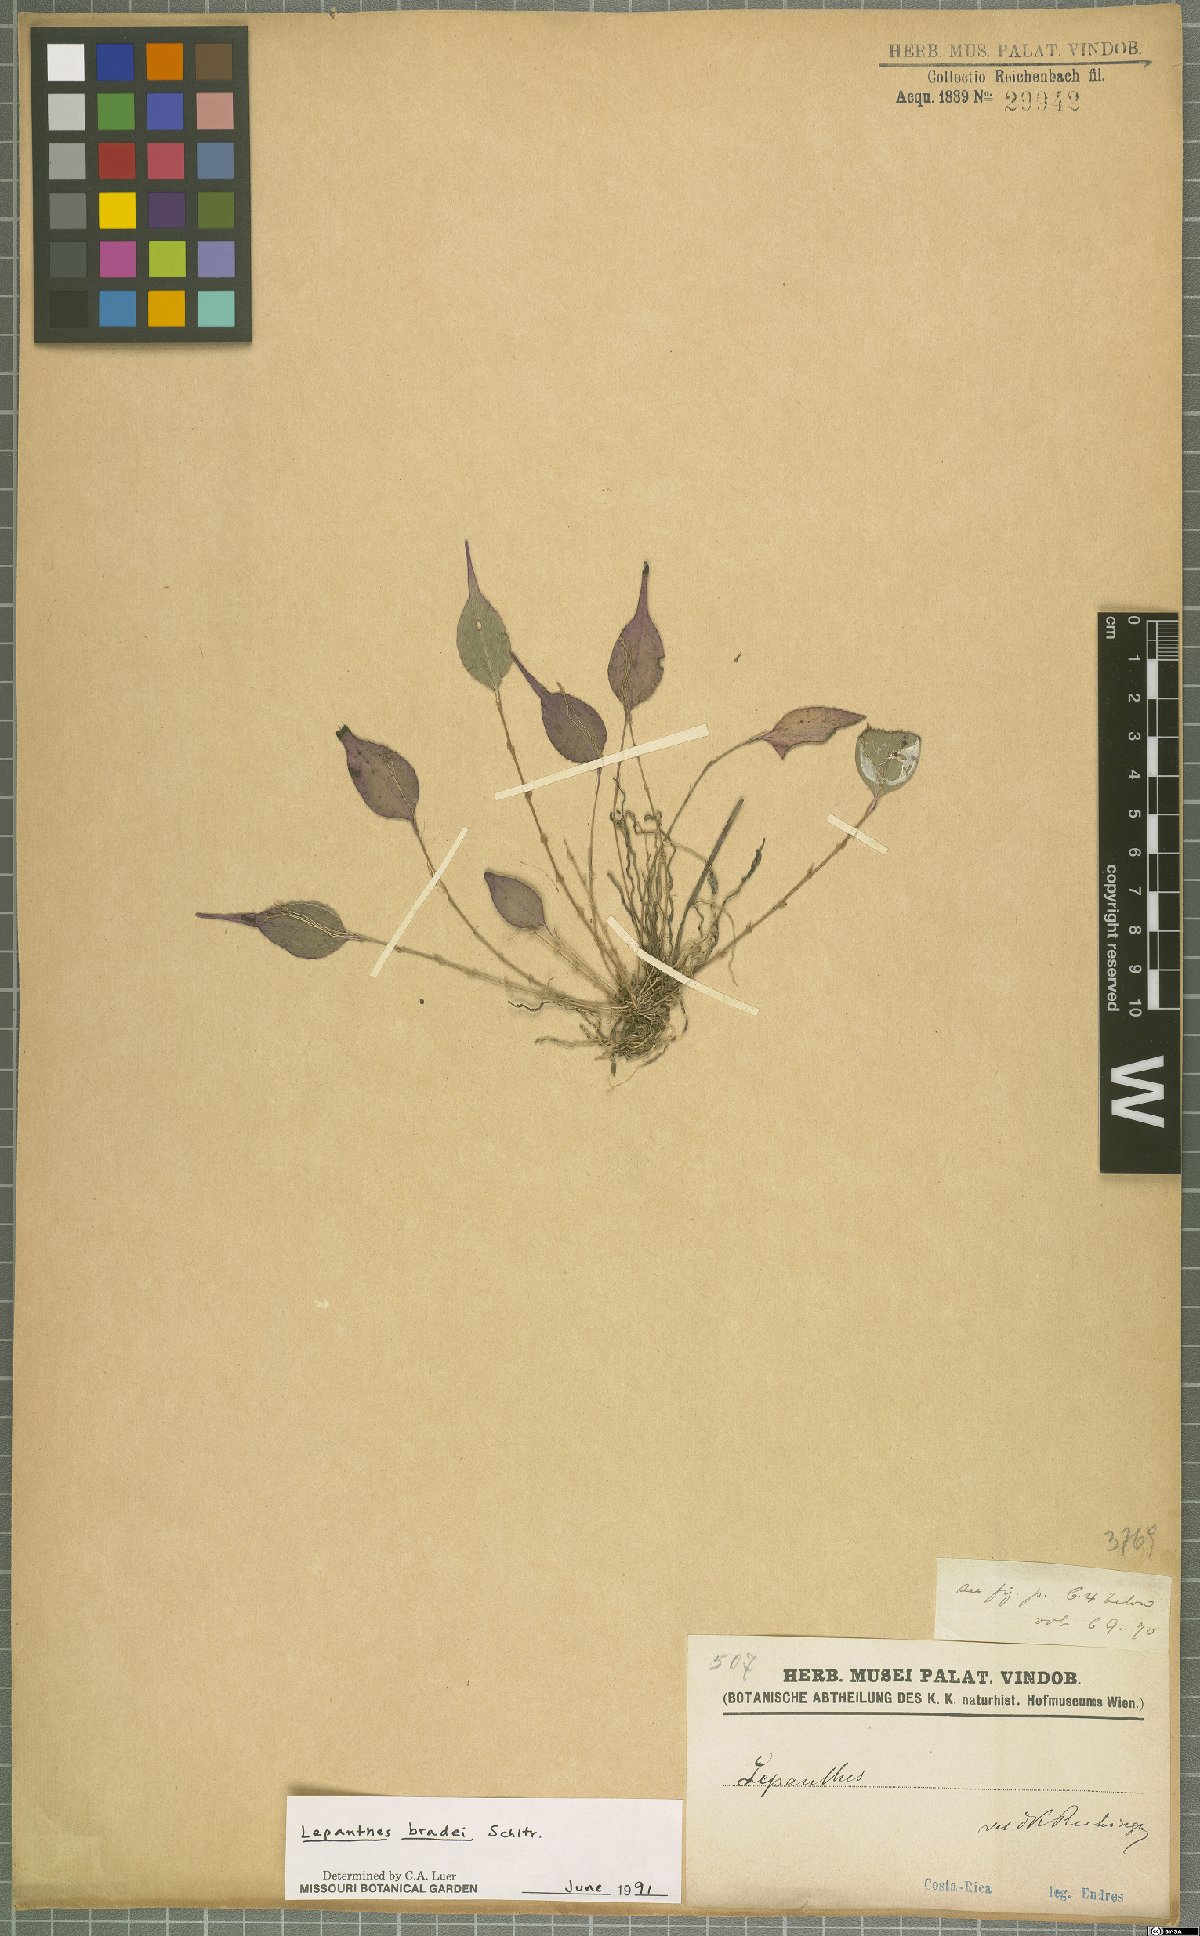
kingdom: Plantae
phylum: Tracheophyta
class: Liliopsida
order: Asparagales
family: Orchidaceae
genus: Lepanthes
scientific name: Lepanthes bradei
